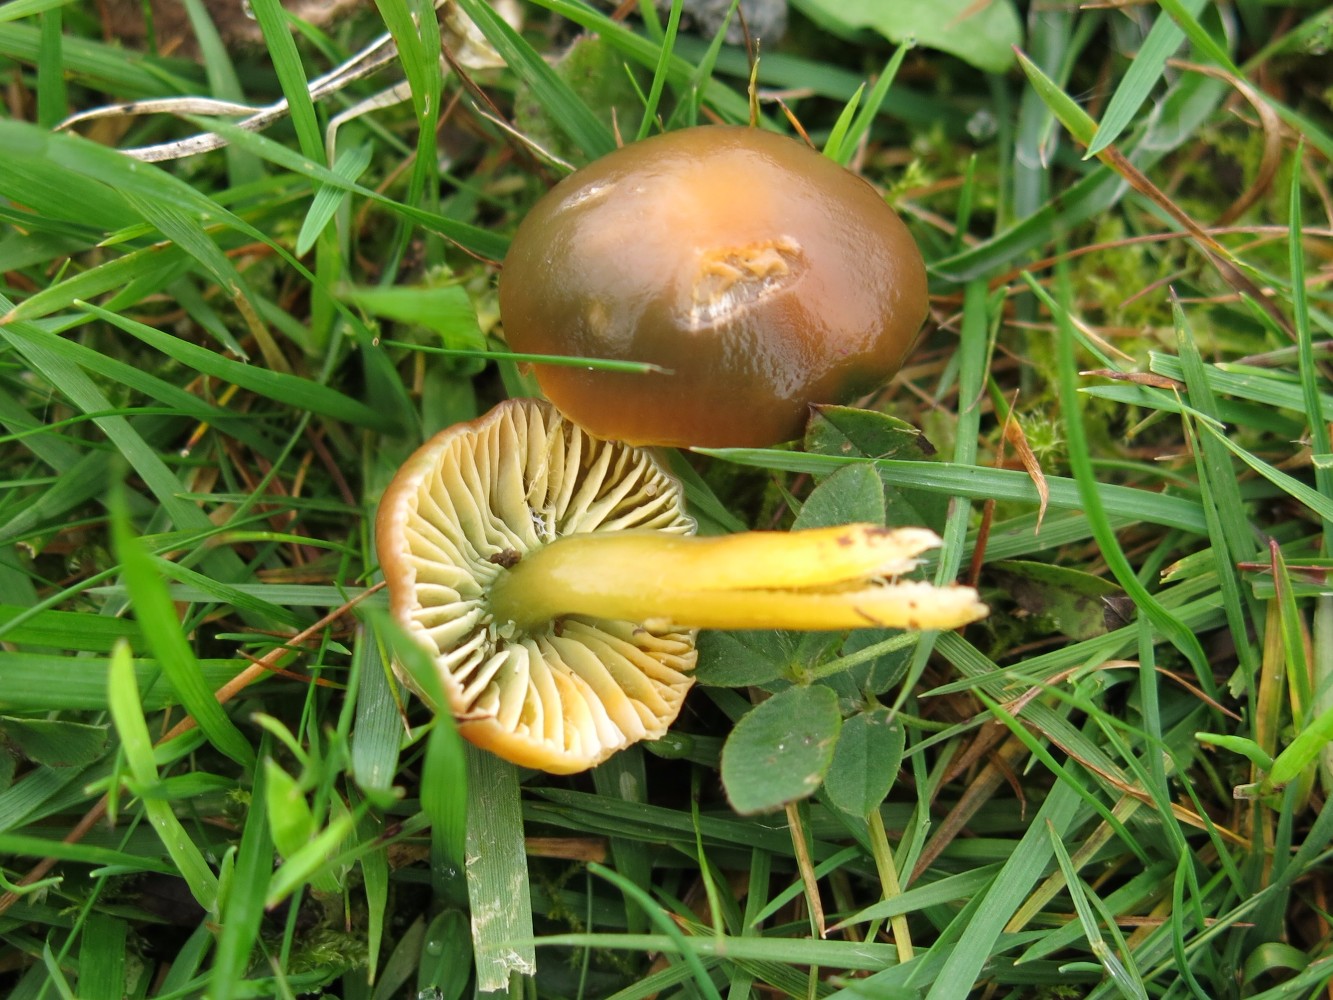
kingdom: Fungi
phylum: Basidiomycota
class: Agaricomycetes
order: Agaricales
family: Hygrophoraceae
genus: Gliophorus
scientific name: Gliophorus psittacinus
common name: papegøje-vokshat
